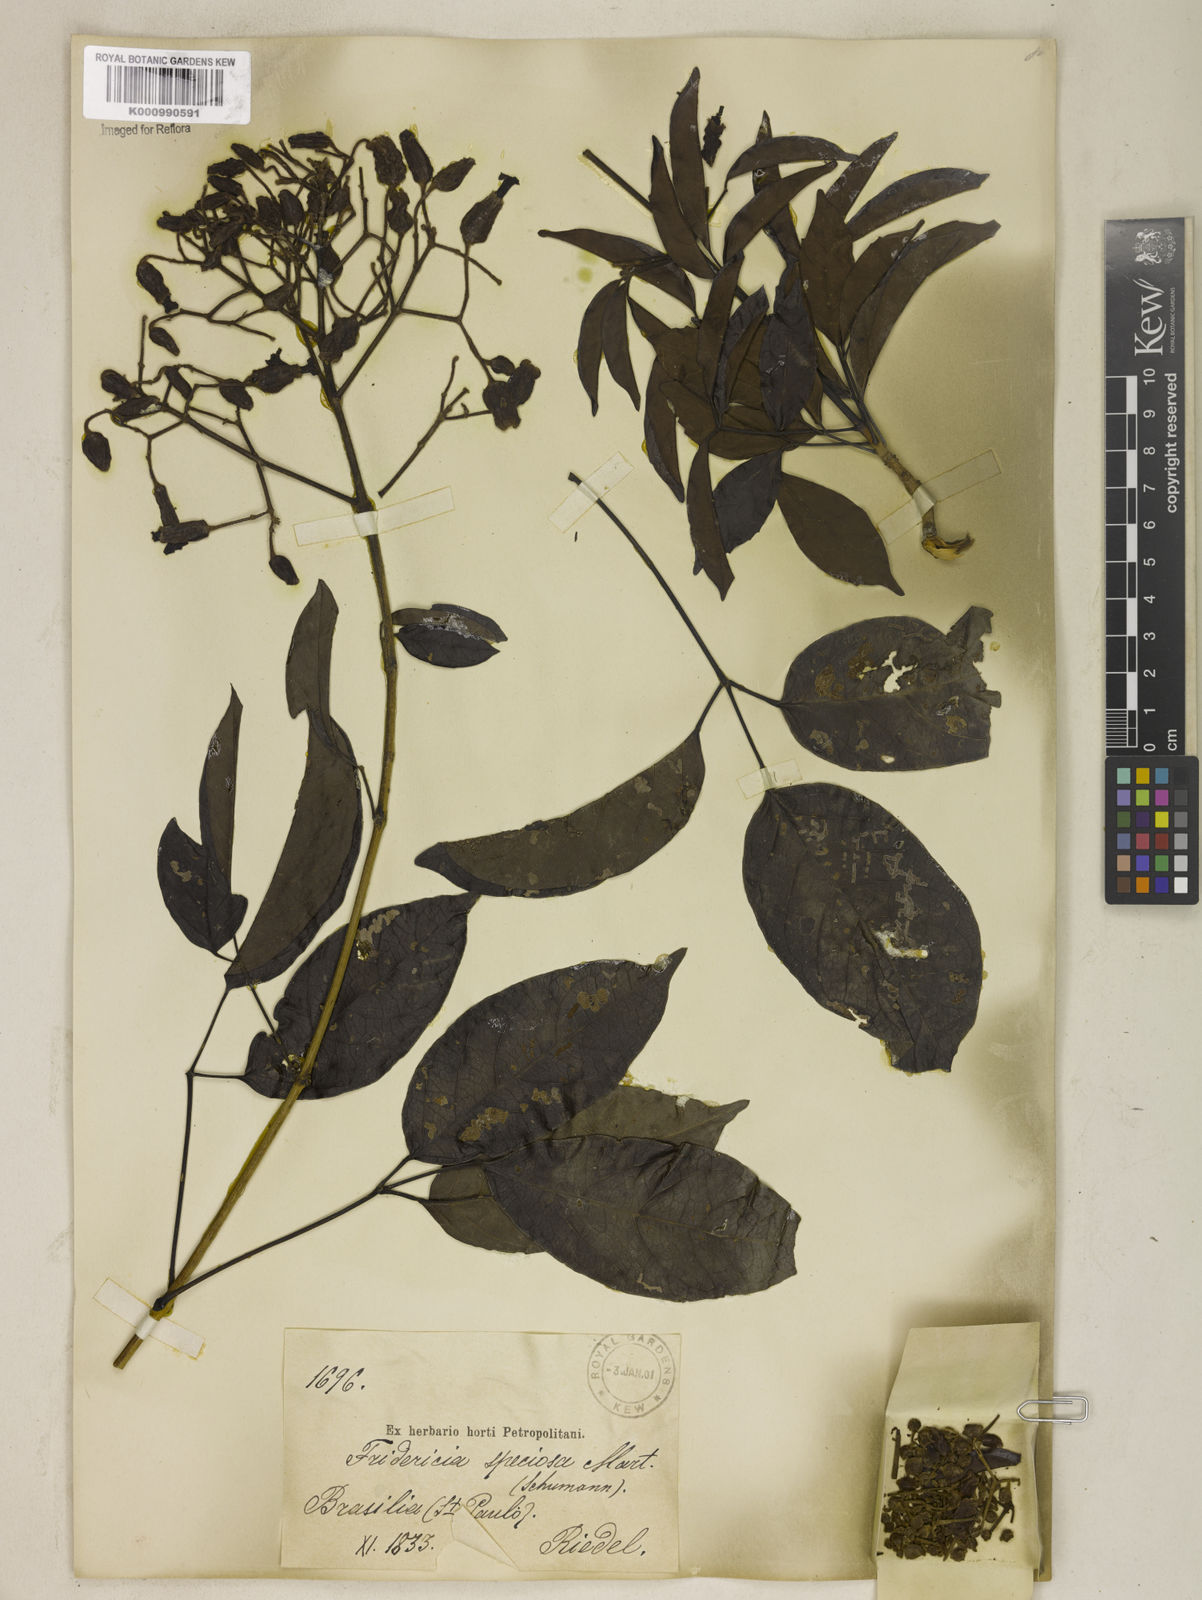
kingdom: Plantae
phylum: Tracheophyta
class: Magnoliopsida
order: Lamiales
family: Bignoniaceae
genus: Fridericia
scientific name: Fridericia speciosa
